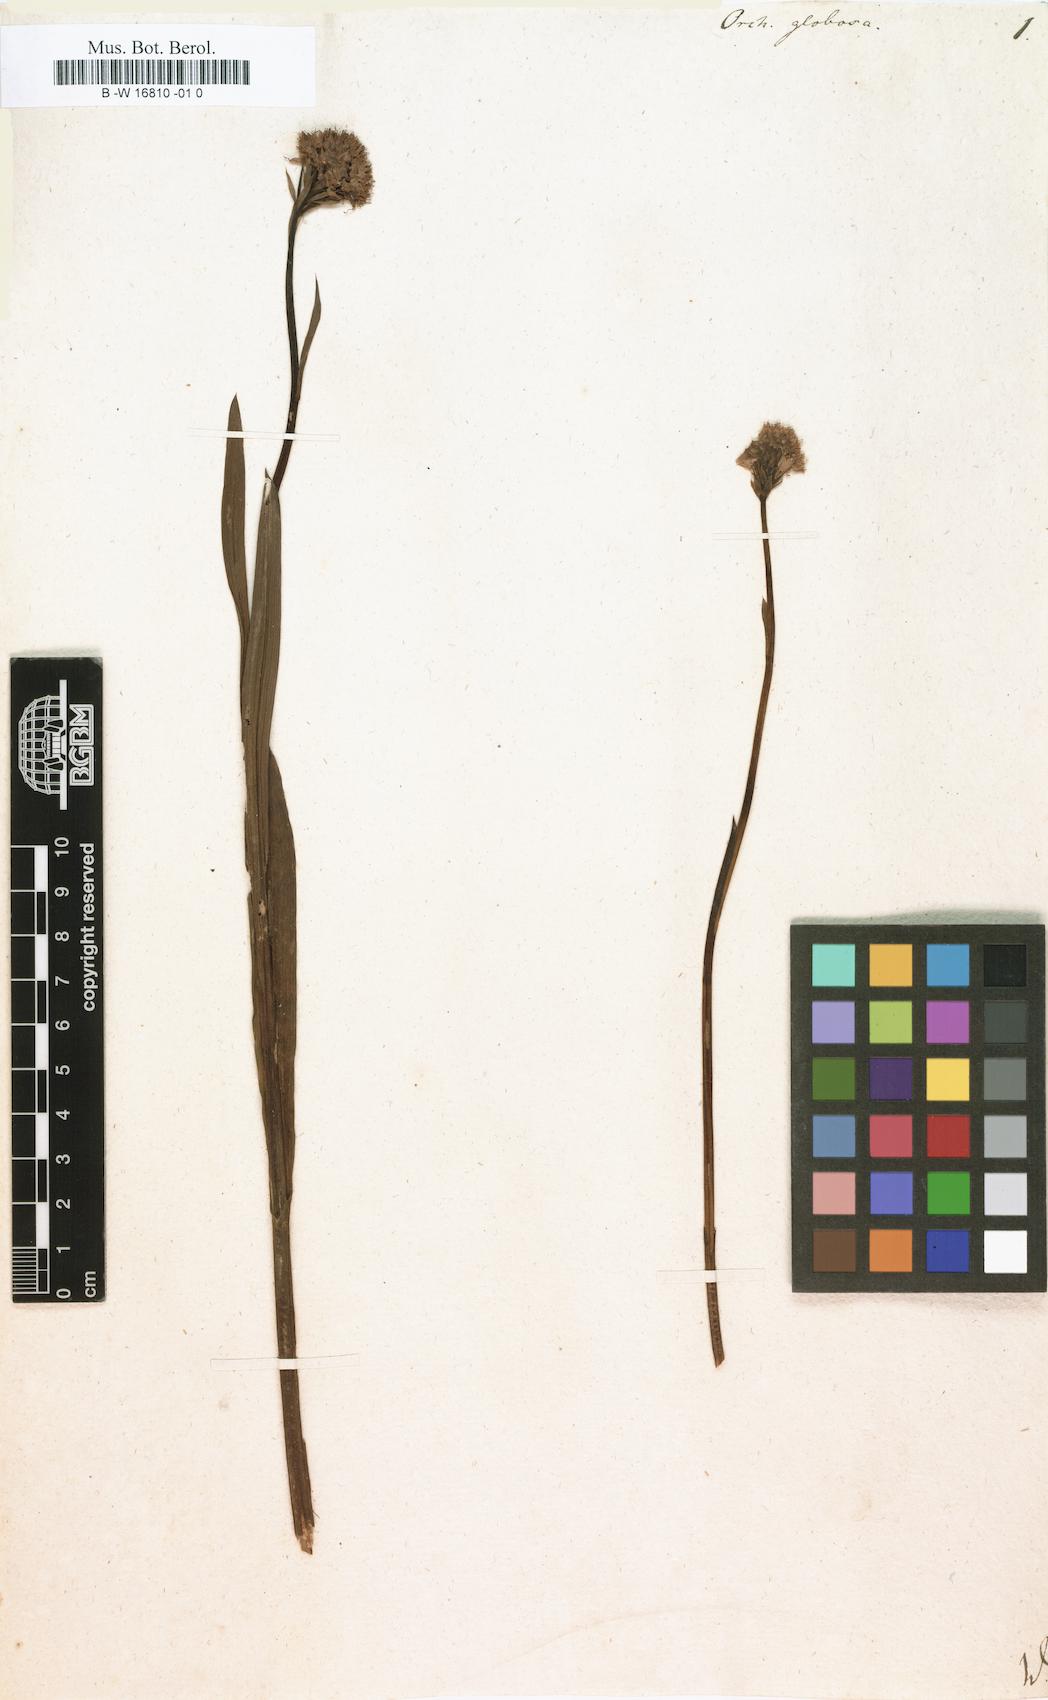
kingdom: Plantae
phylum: Tracheophyta
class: Liliopsida
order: Asparagales
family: Orchidaceae
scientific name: Orchidaceae
